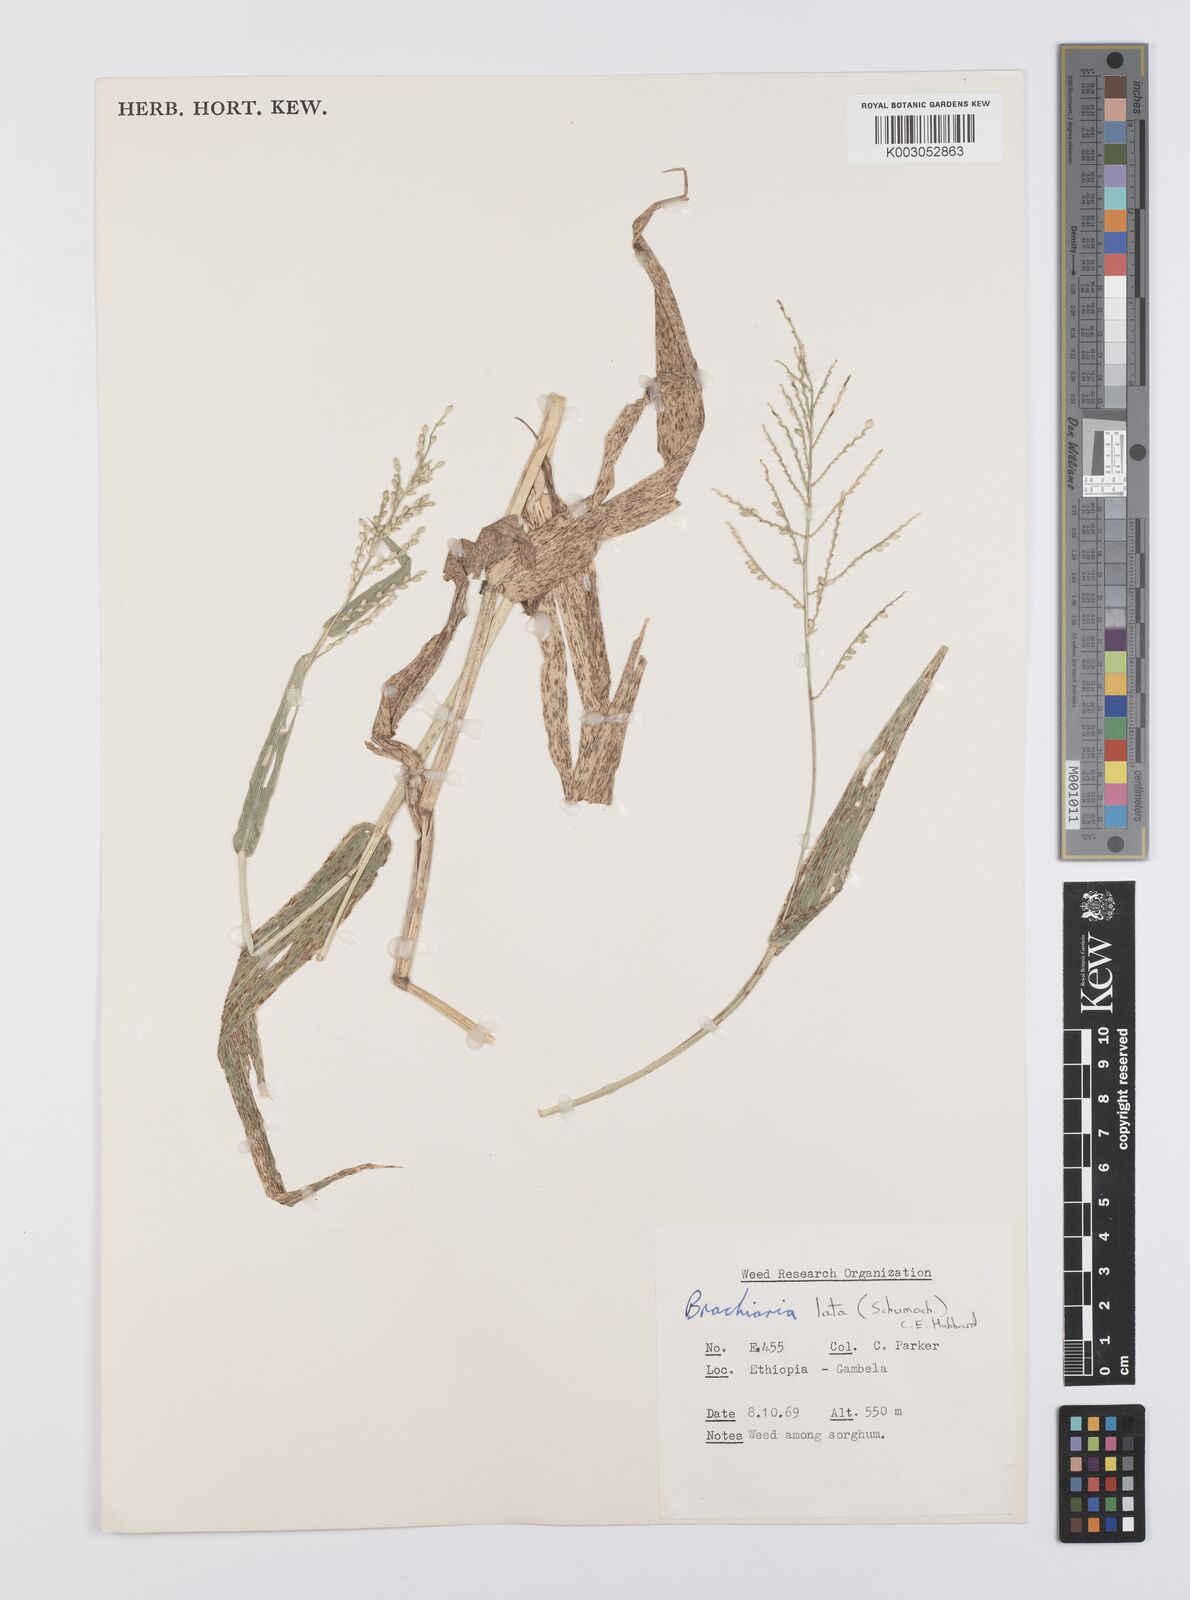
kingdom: Plantae
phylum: Tracheophyta
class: Liliopsida
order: Poales
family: Poaceae
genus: Urochloa
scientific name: Urochloa lata
